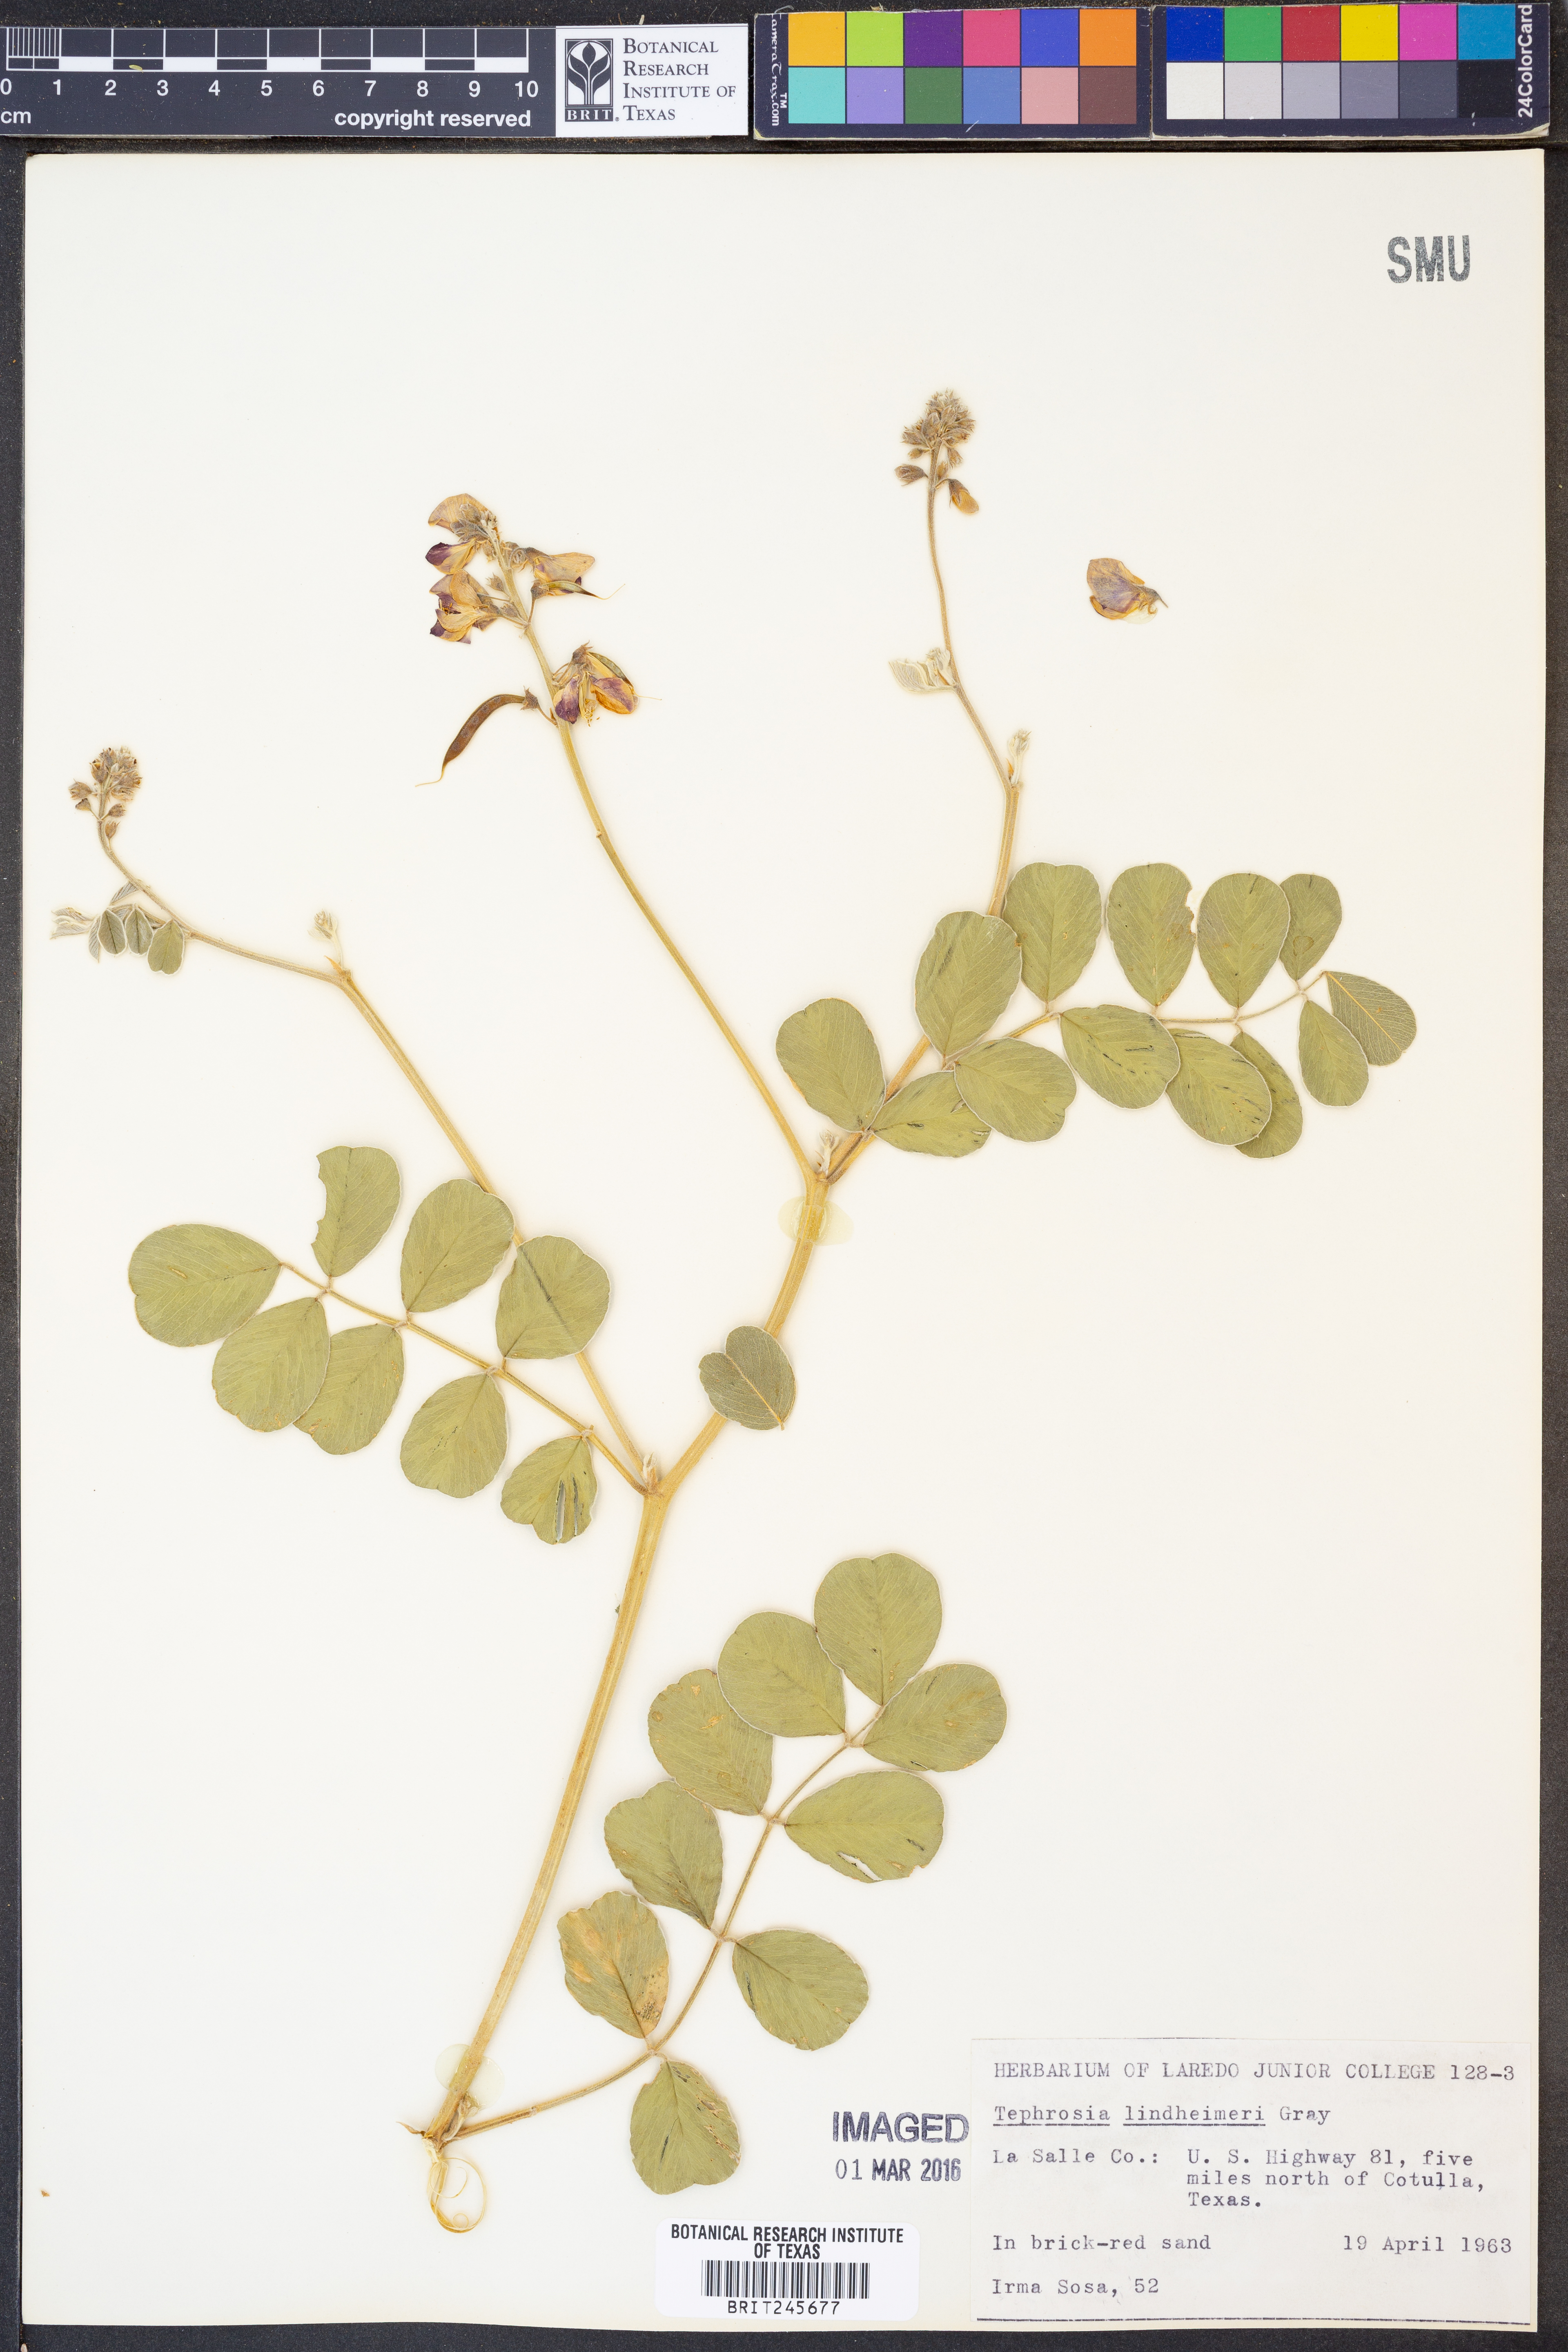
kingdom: Plantae
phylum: Tracheophyta
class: Magnoliopsida
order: Fabales
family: Fabaceae
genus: Tephrosia
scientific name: Tephrosia lindheimeri
